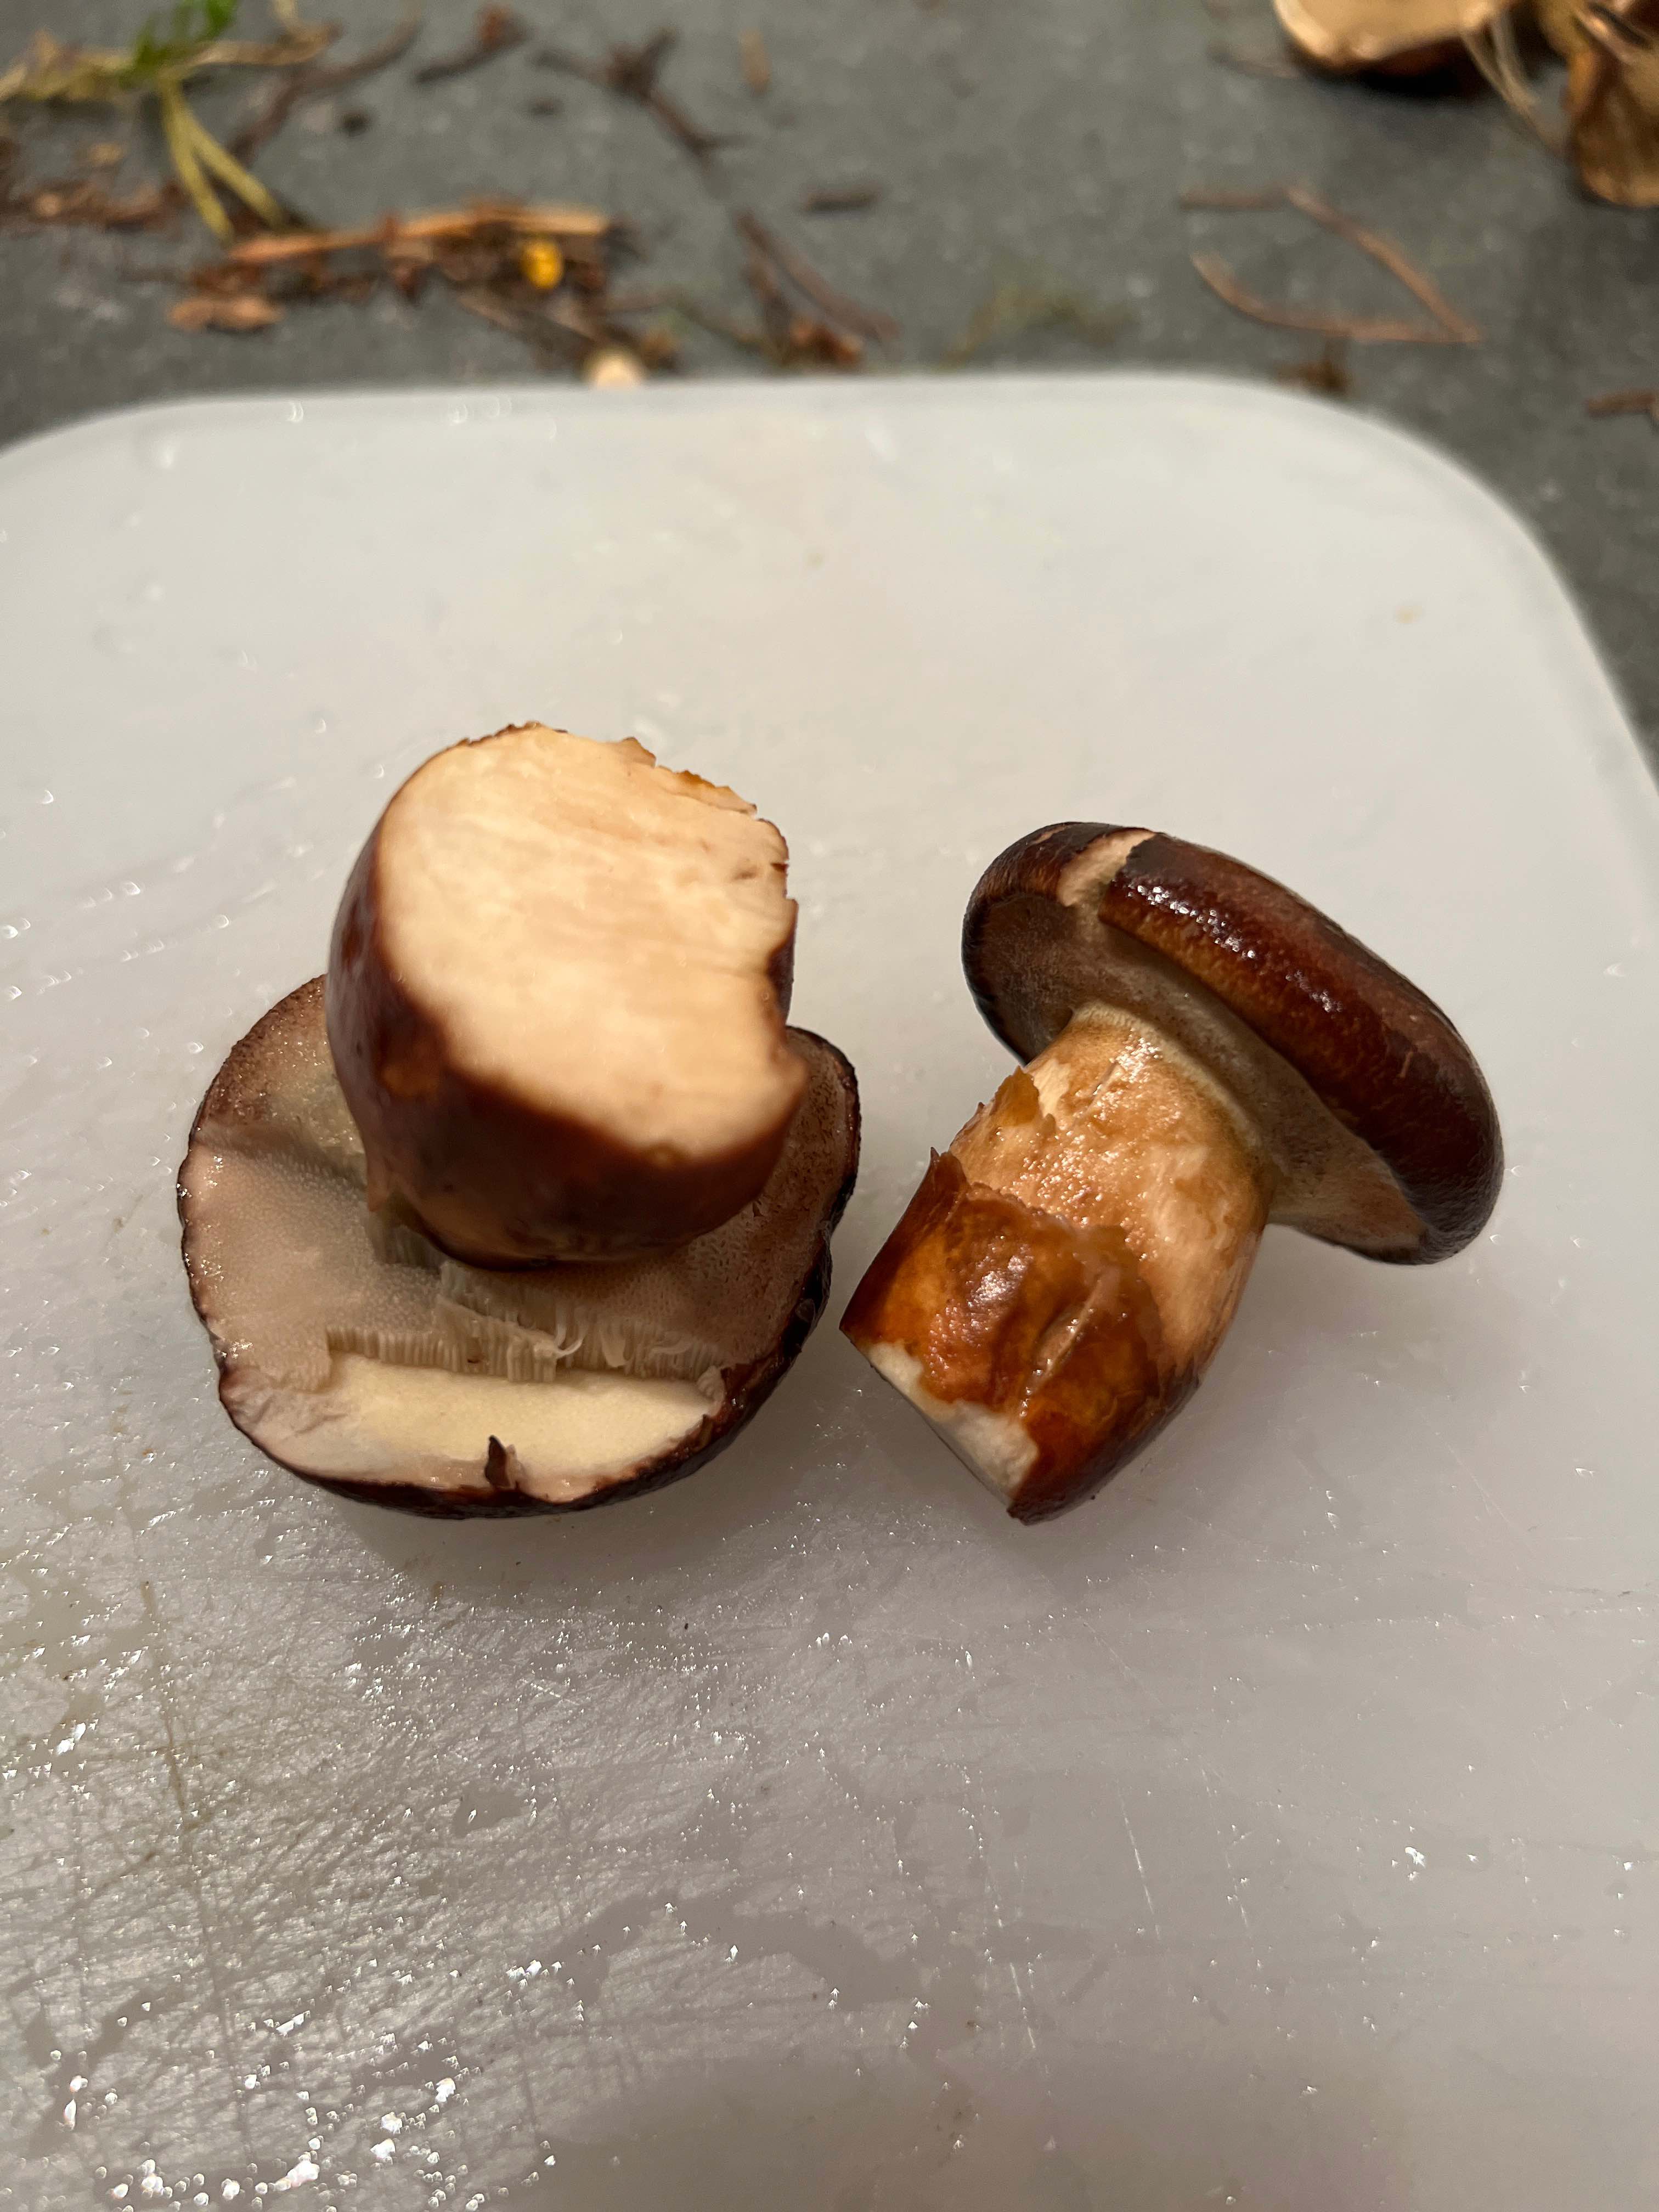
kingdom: Fungi
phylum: Basidiomycota
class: Agaricomycetes
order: Boletales
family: Boletaceae
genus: Imleria
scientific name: Imleria badia
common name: brunstokket rørhat
